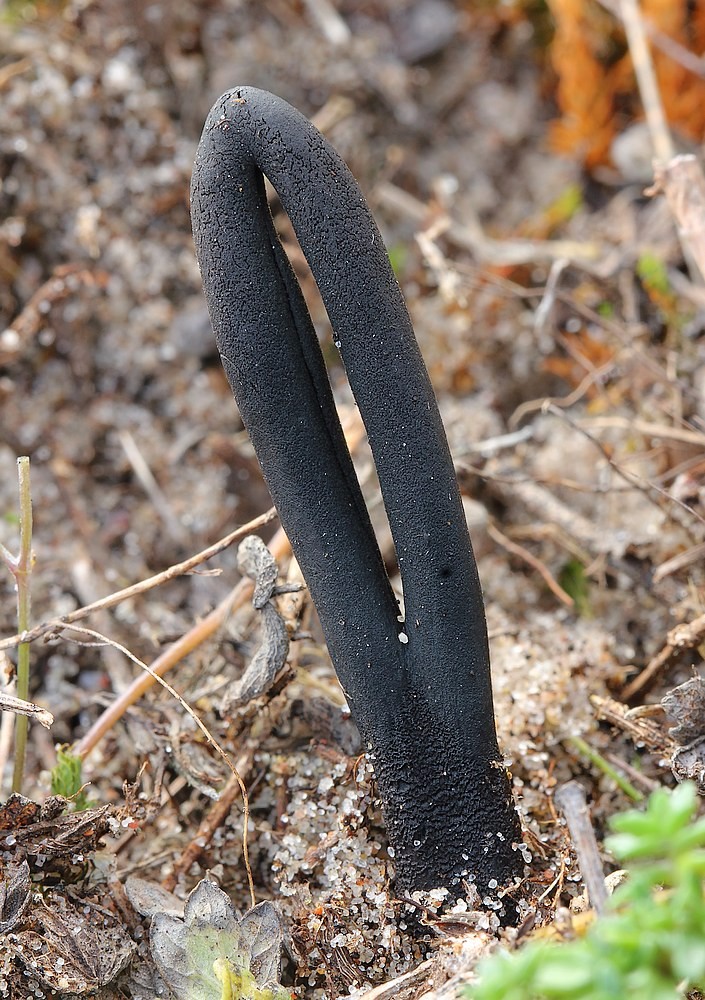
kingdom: Fungi
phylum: Ascomycota
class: Geoglossomycetes
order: Geoglossales
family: Geoglossaceae
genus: Geoglossum
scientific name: Geoglossum cookeianum
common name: bred jordtunge
